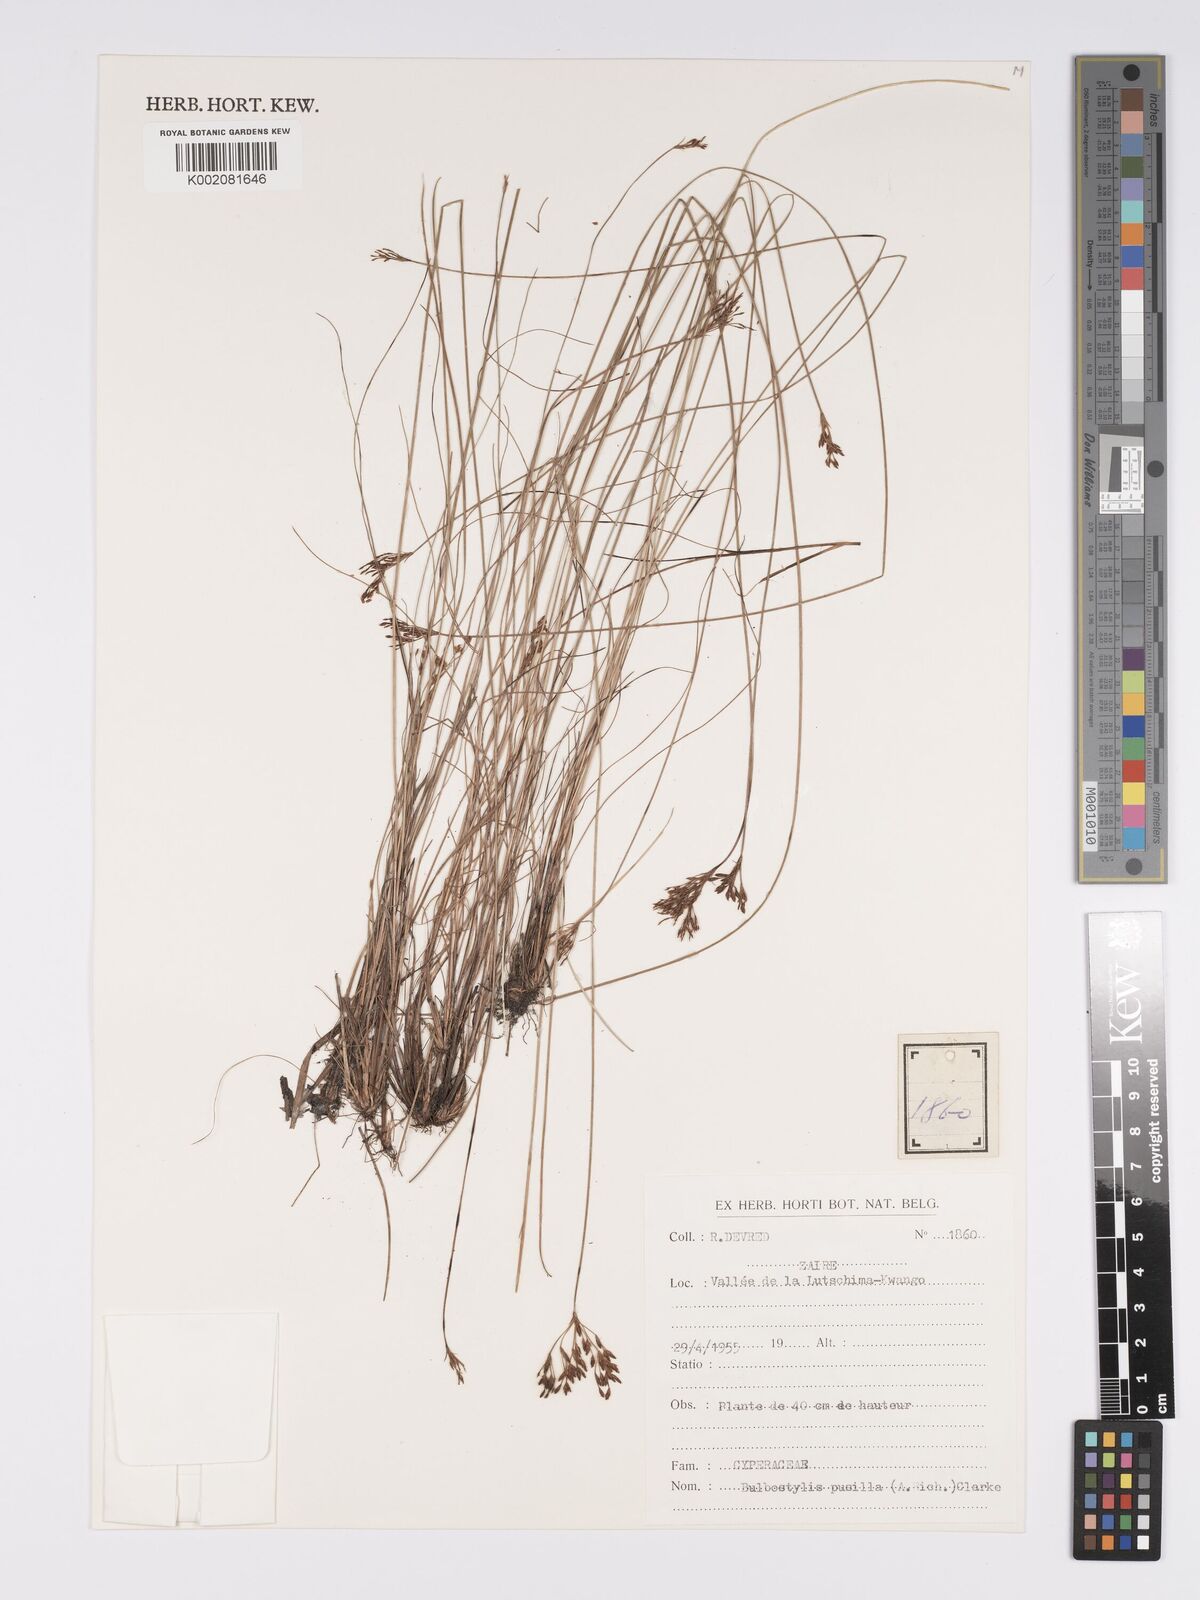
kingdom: Plantae
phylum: Tracheophyta
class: Liliopsida
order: Poales
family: Cyperaceae
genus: Bulbostylis
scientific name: Bulbostylis pusilla
